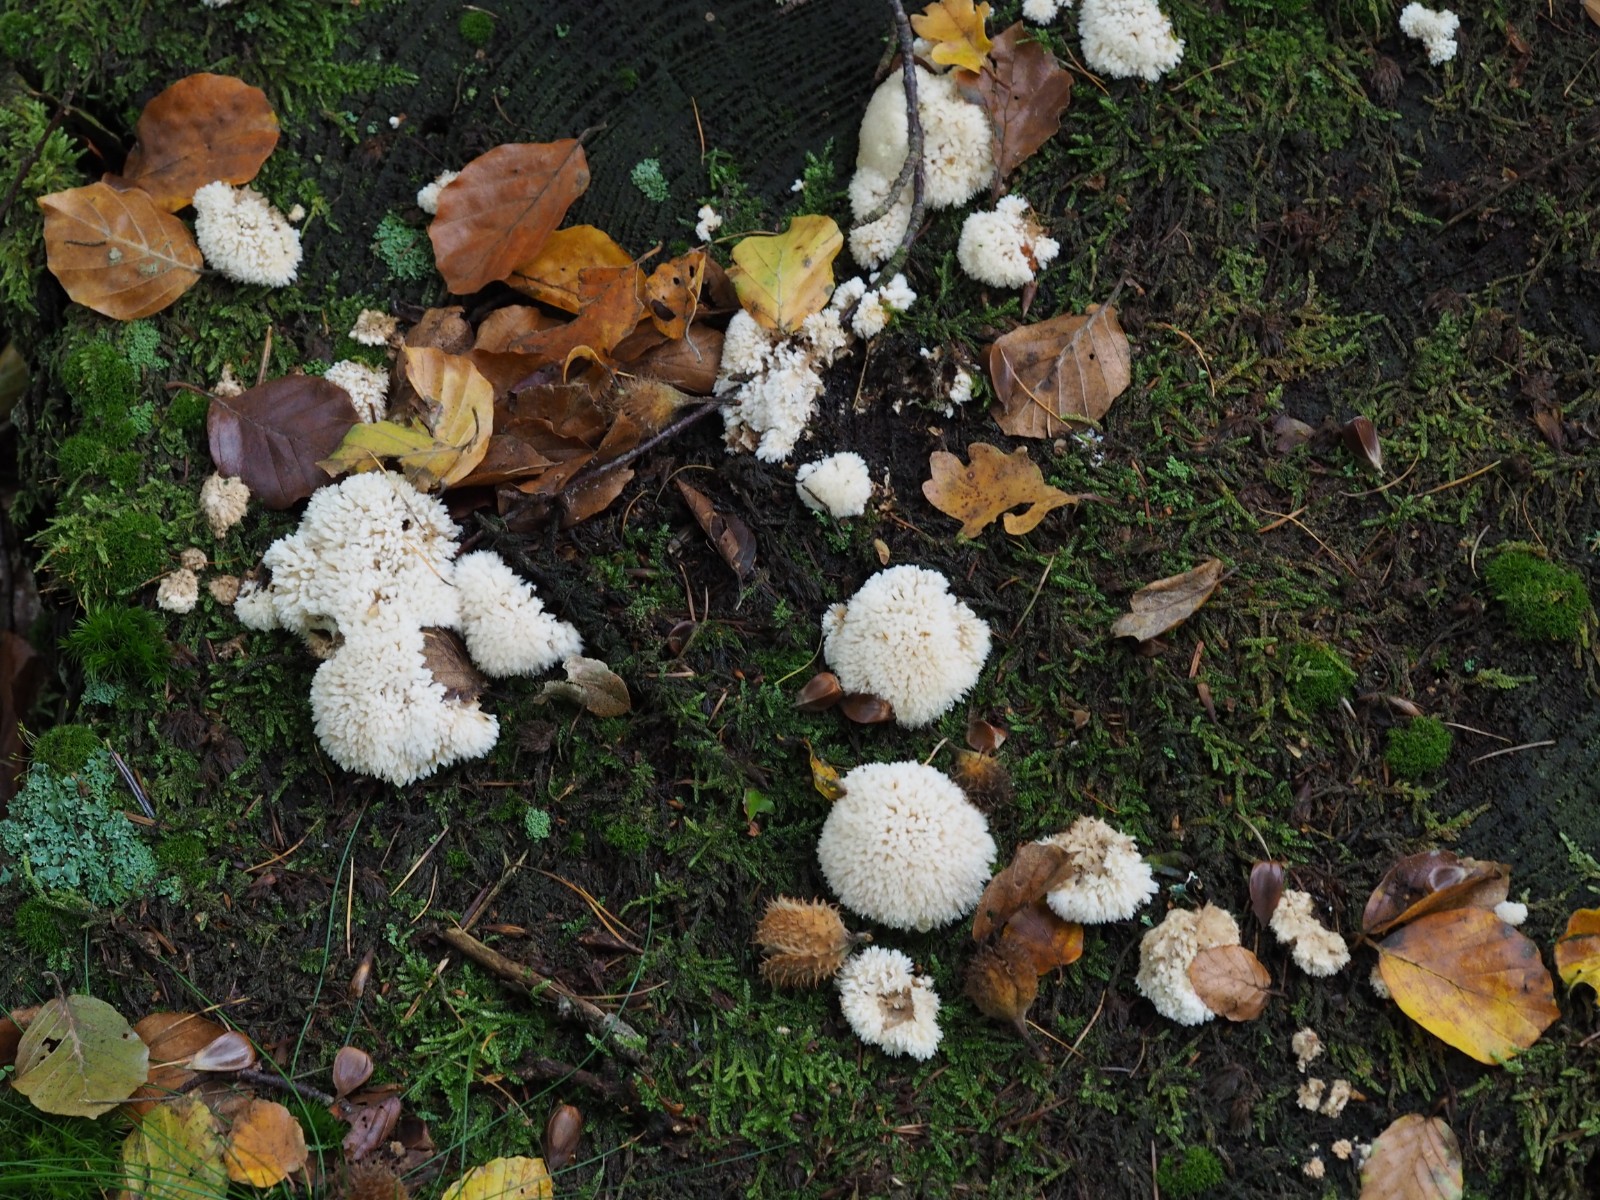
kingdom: Fungi
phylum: Basidiomycota
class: Agaricomycetes
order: Polyporales
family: Dacryobolaceae
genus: Postia
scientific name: Postia ptychogaster
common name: støvende kødporesvamp
